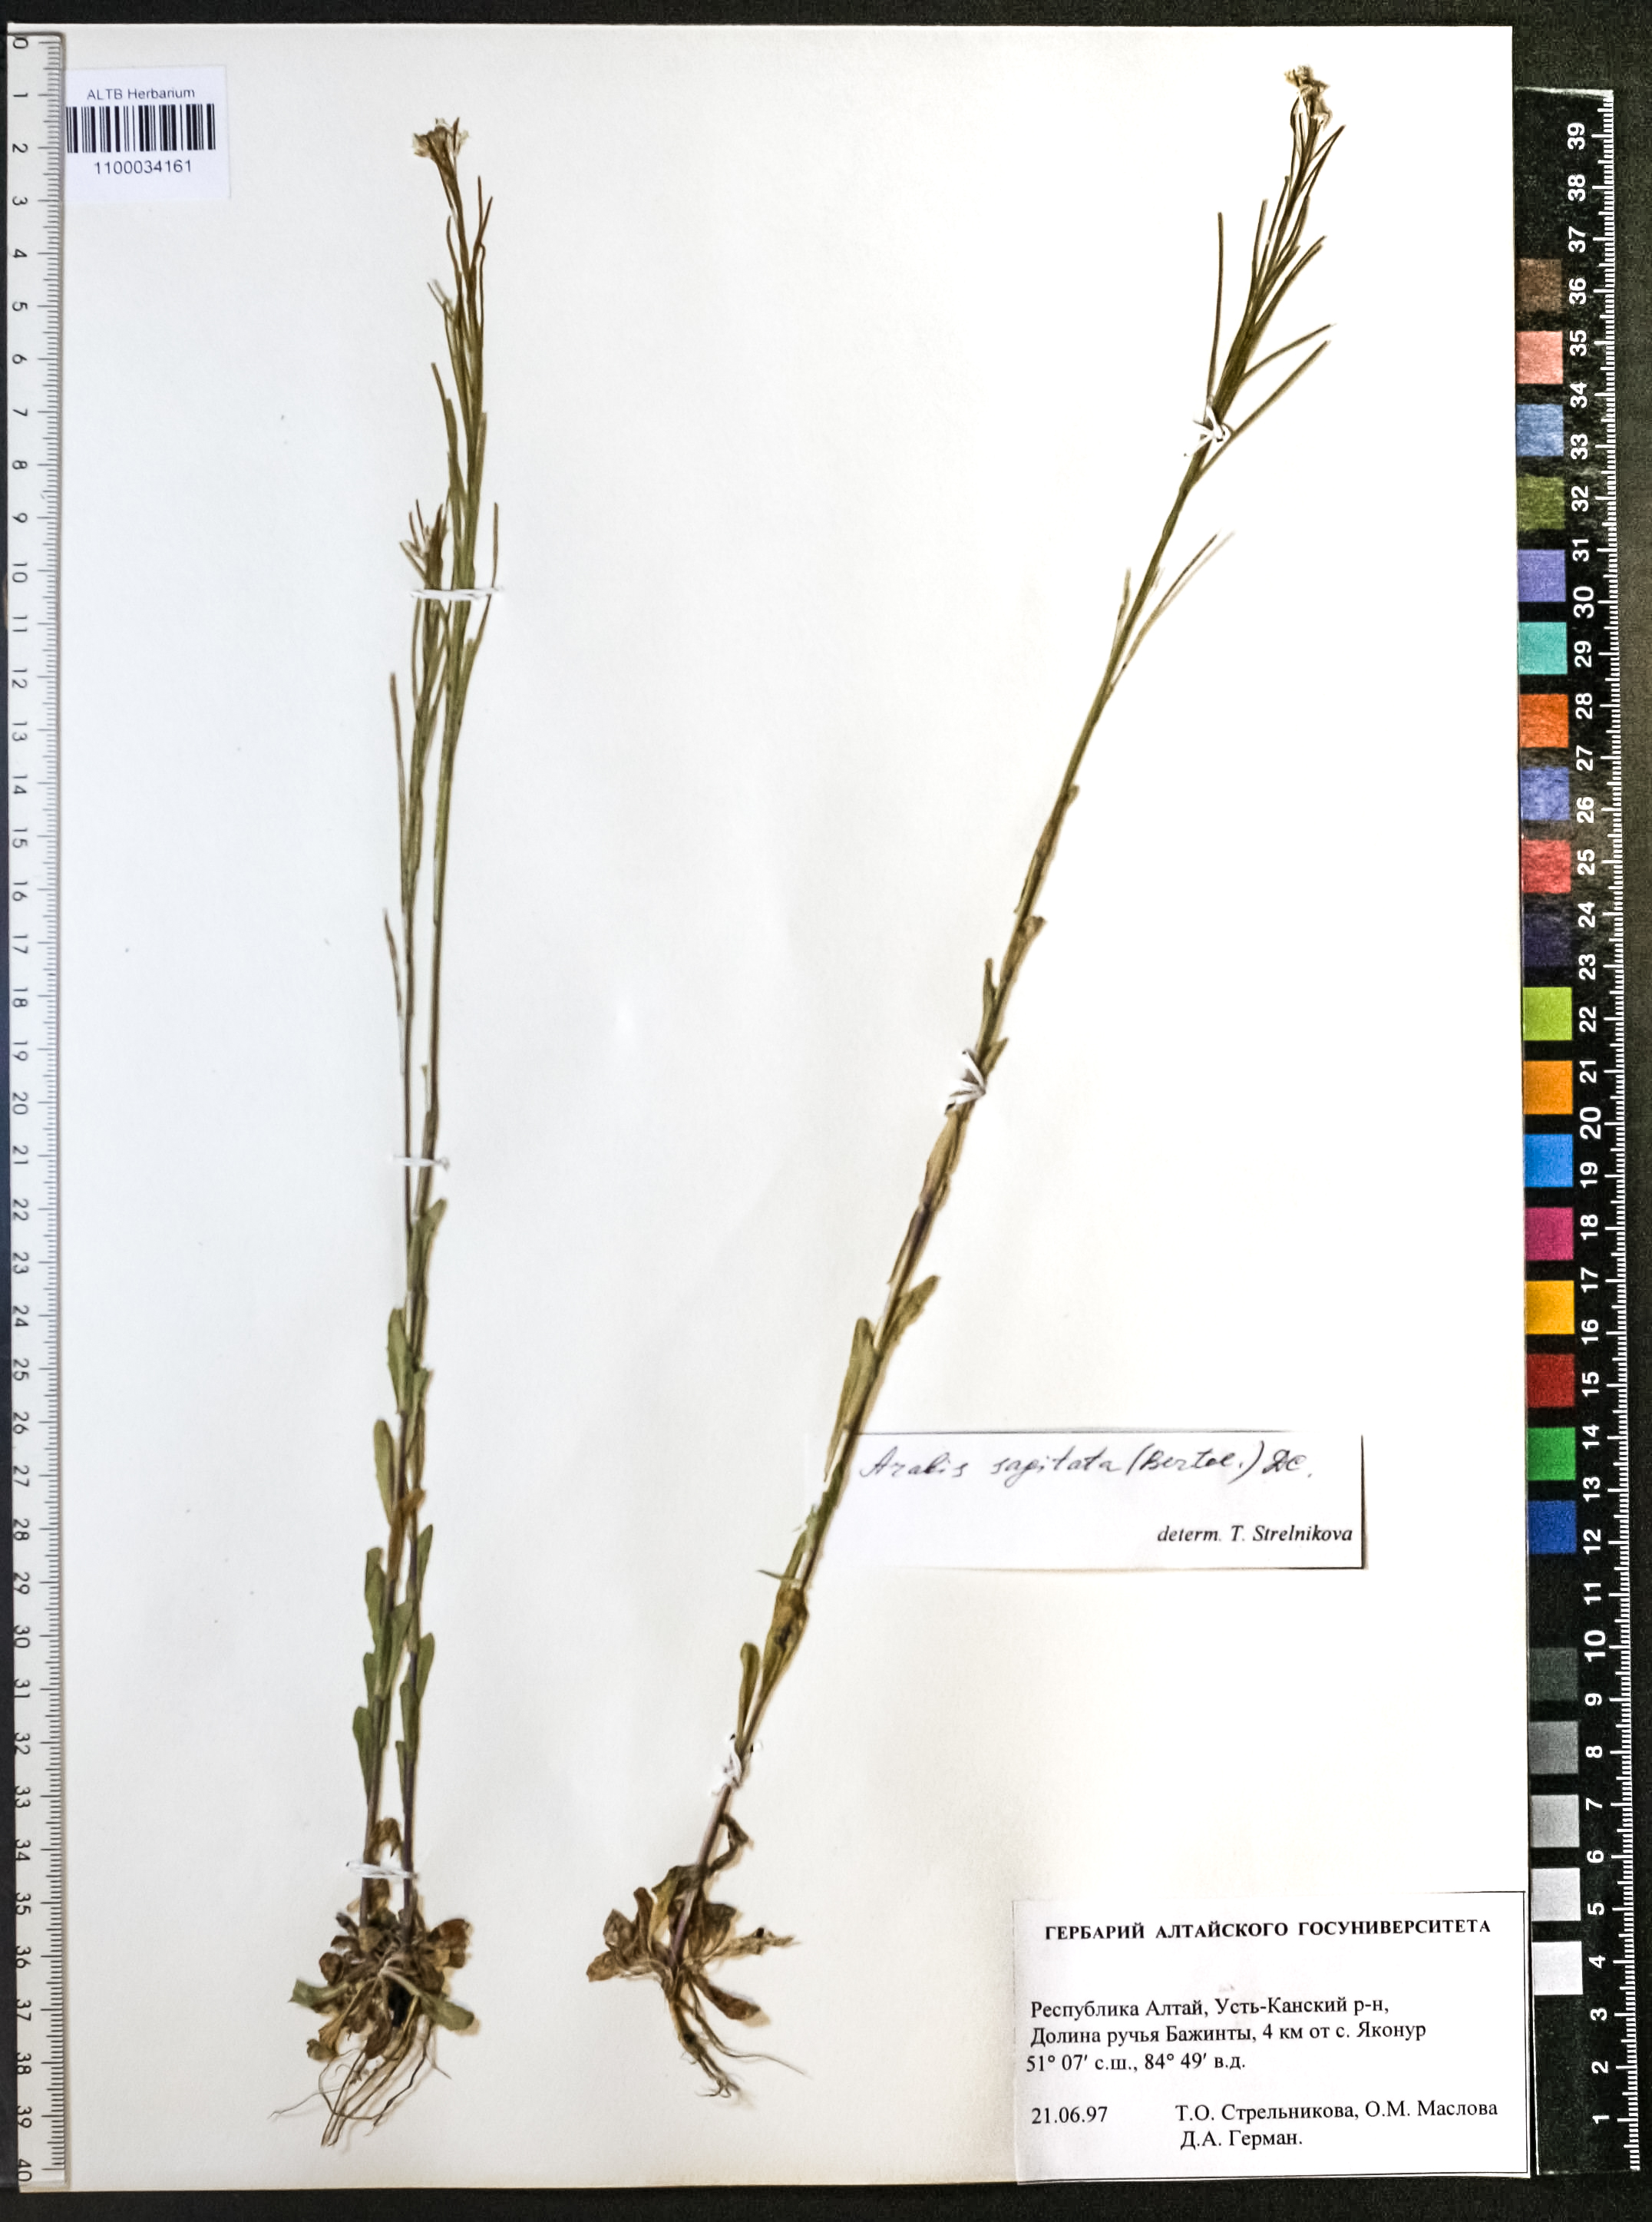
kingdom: Plantae
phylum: Tracheophyta
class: Magnoliopsida
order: Brassicales
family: Brassicaceae
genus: Arabis
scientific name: Arabis sagittata
